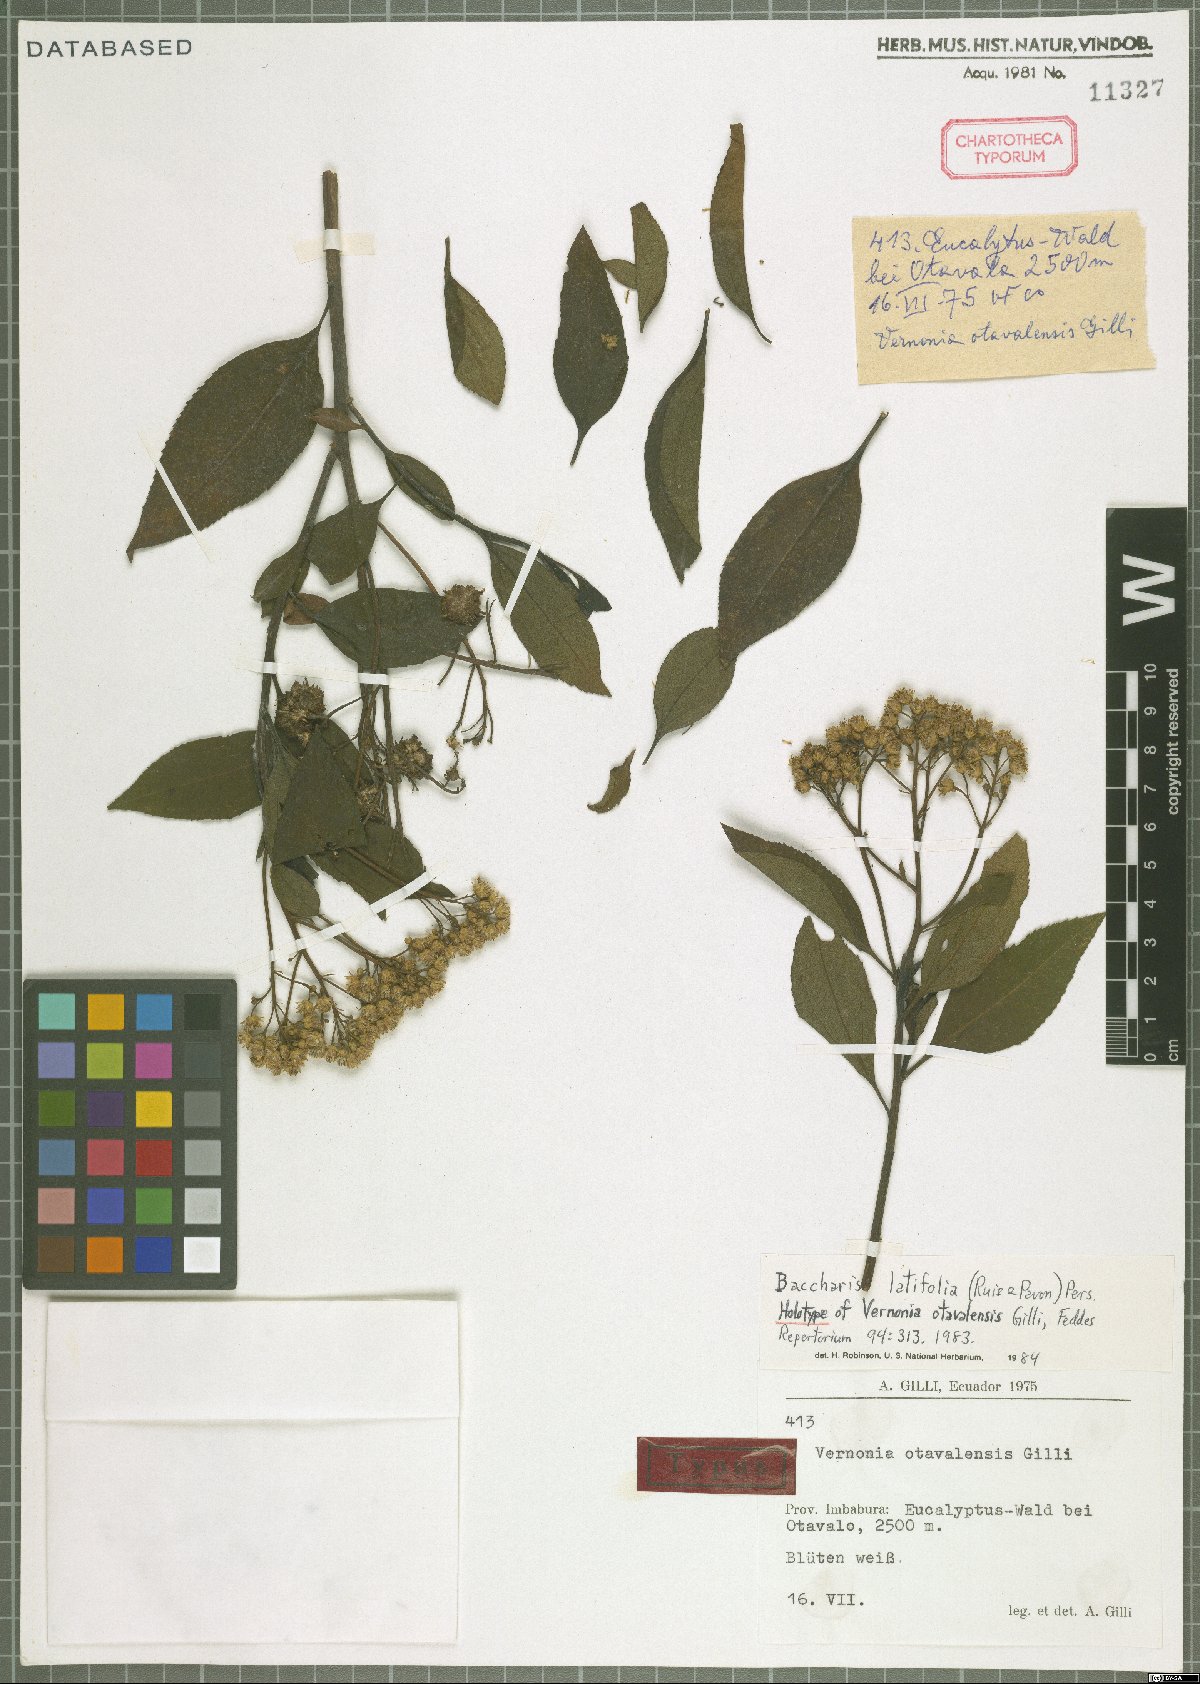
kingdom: Plantae
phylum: Tracheophyta
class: Magnoliopsida
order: Asterales
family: Asteraceae
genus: Baccharis
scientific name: Baccharis latifolia
